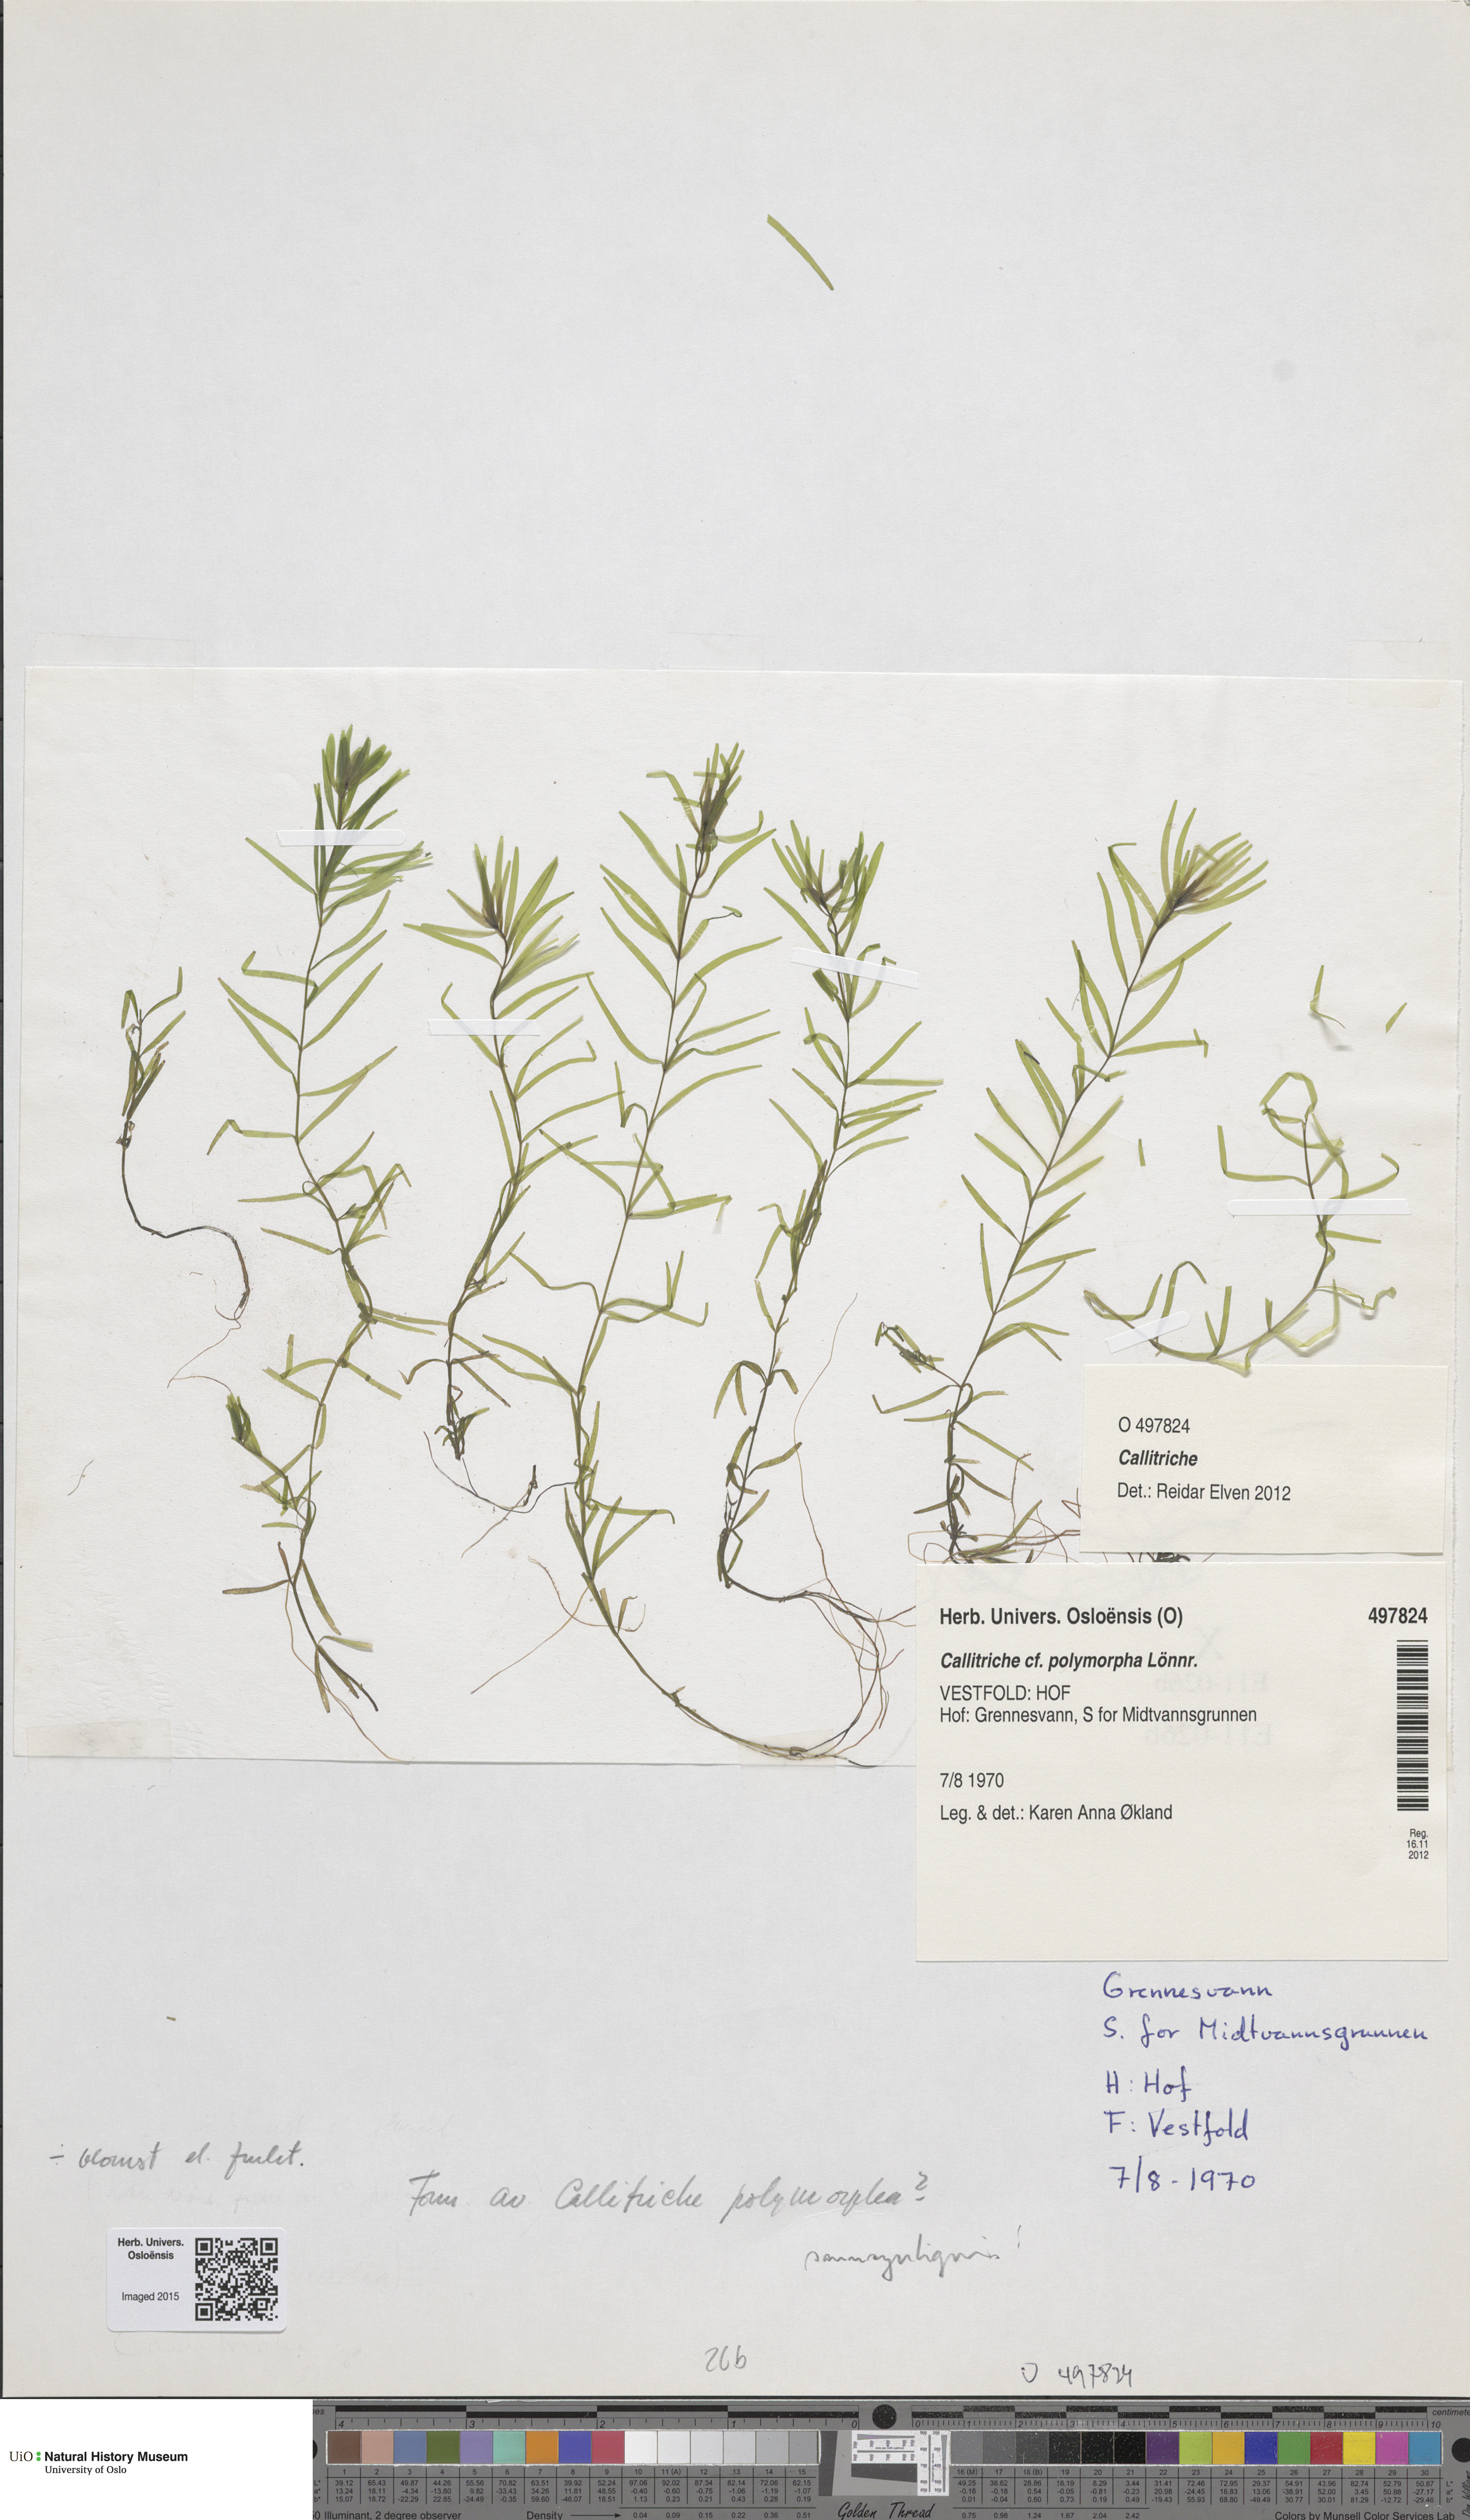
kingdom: Plantae
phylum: Tracheophyta
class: Magnoliopsida
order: Lamiales
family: Plantaginaceae
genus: Callitriche
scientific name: Callitriche cophocarpa
